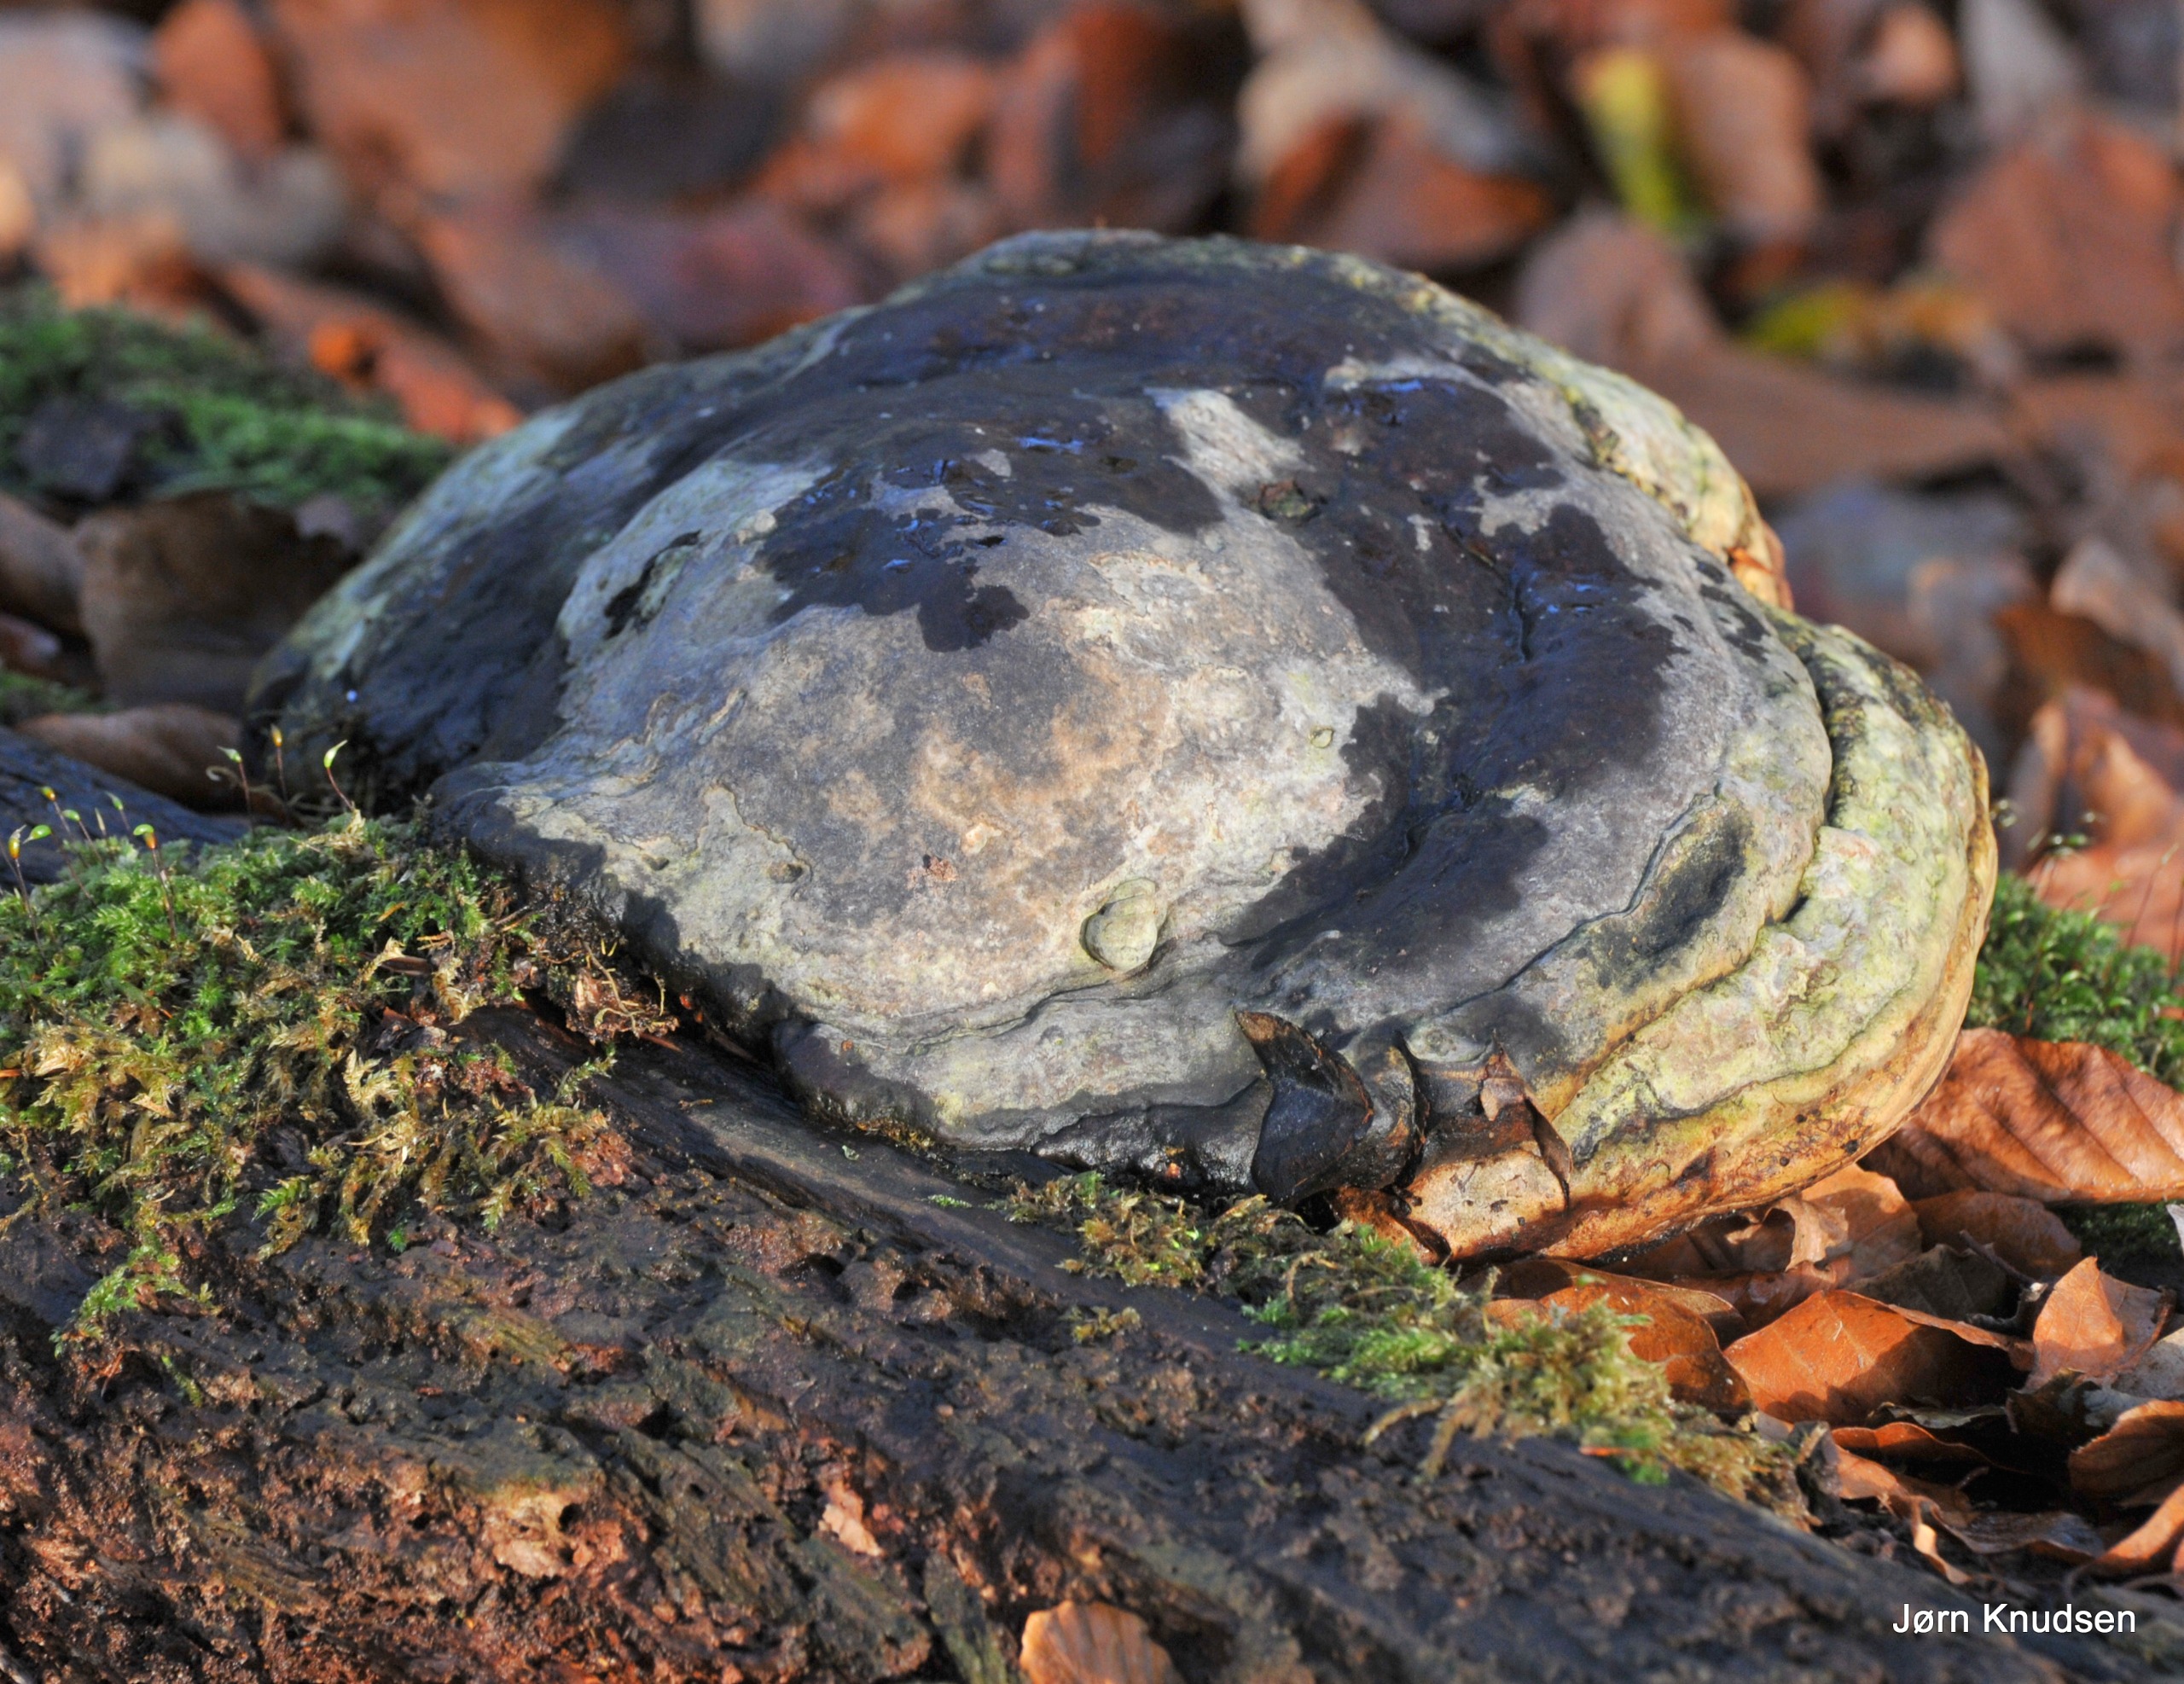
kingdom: Fungi
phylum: Basidiomycota
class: Agaricomycetes
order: Polyporales
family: Polyporaceae
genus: Fomes
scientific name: Fomes fomentarius
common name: Tøndersvamp
